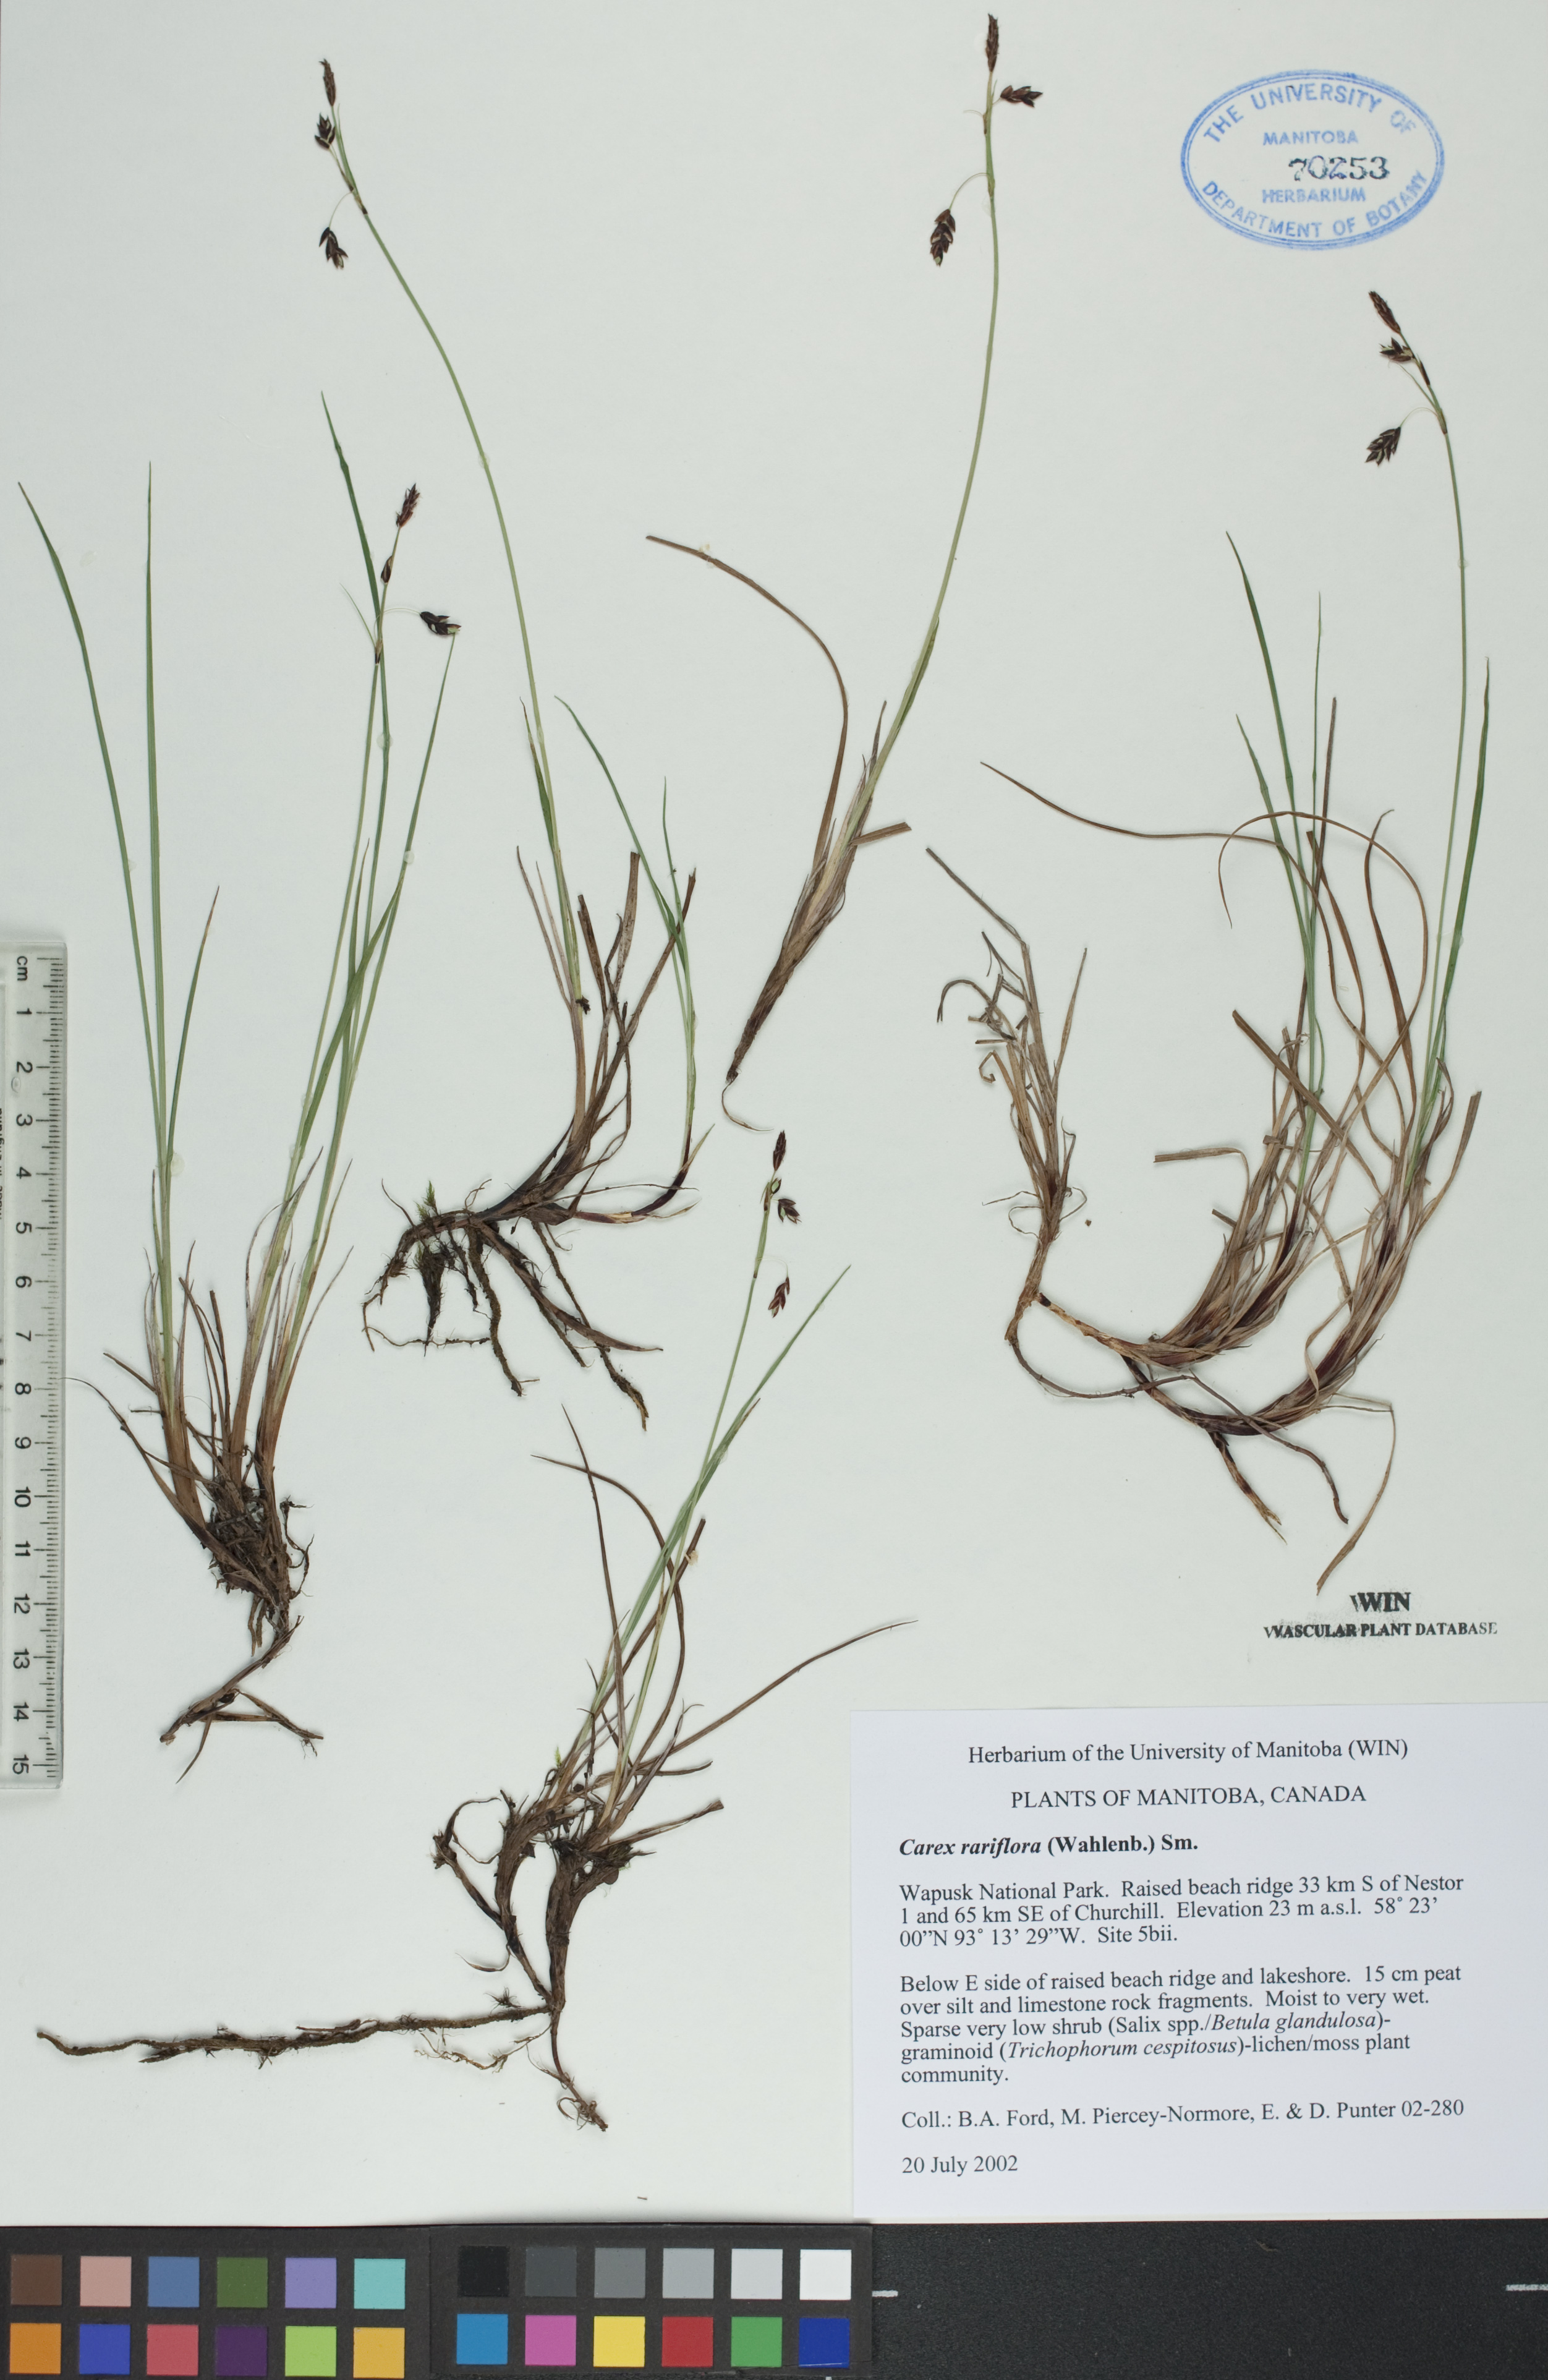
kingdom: Plantae
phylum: Tracheophyta
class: Liliopsida
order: Poales
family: Cyperaceae
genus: Carex
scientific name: Carex rariflora
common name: Loose-flowered alpine sedge
